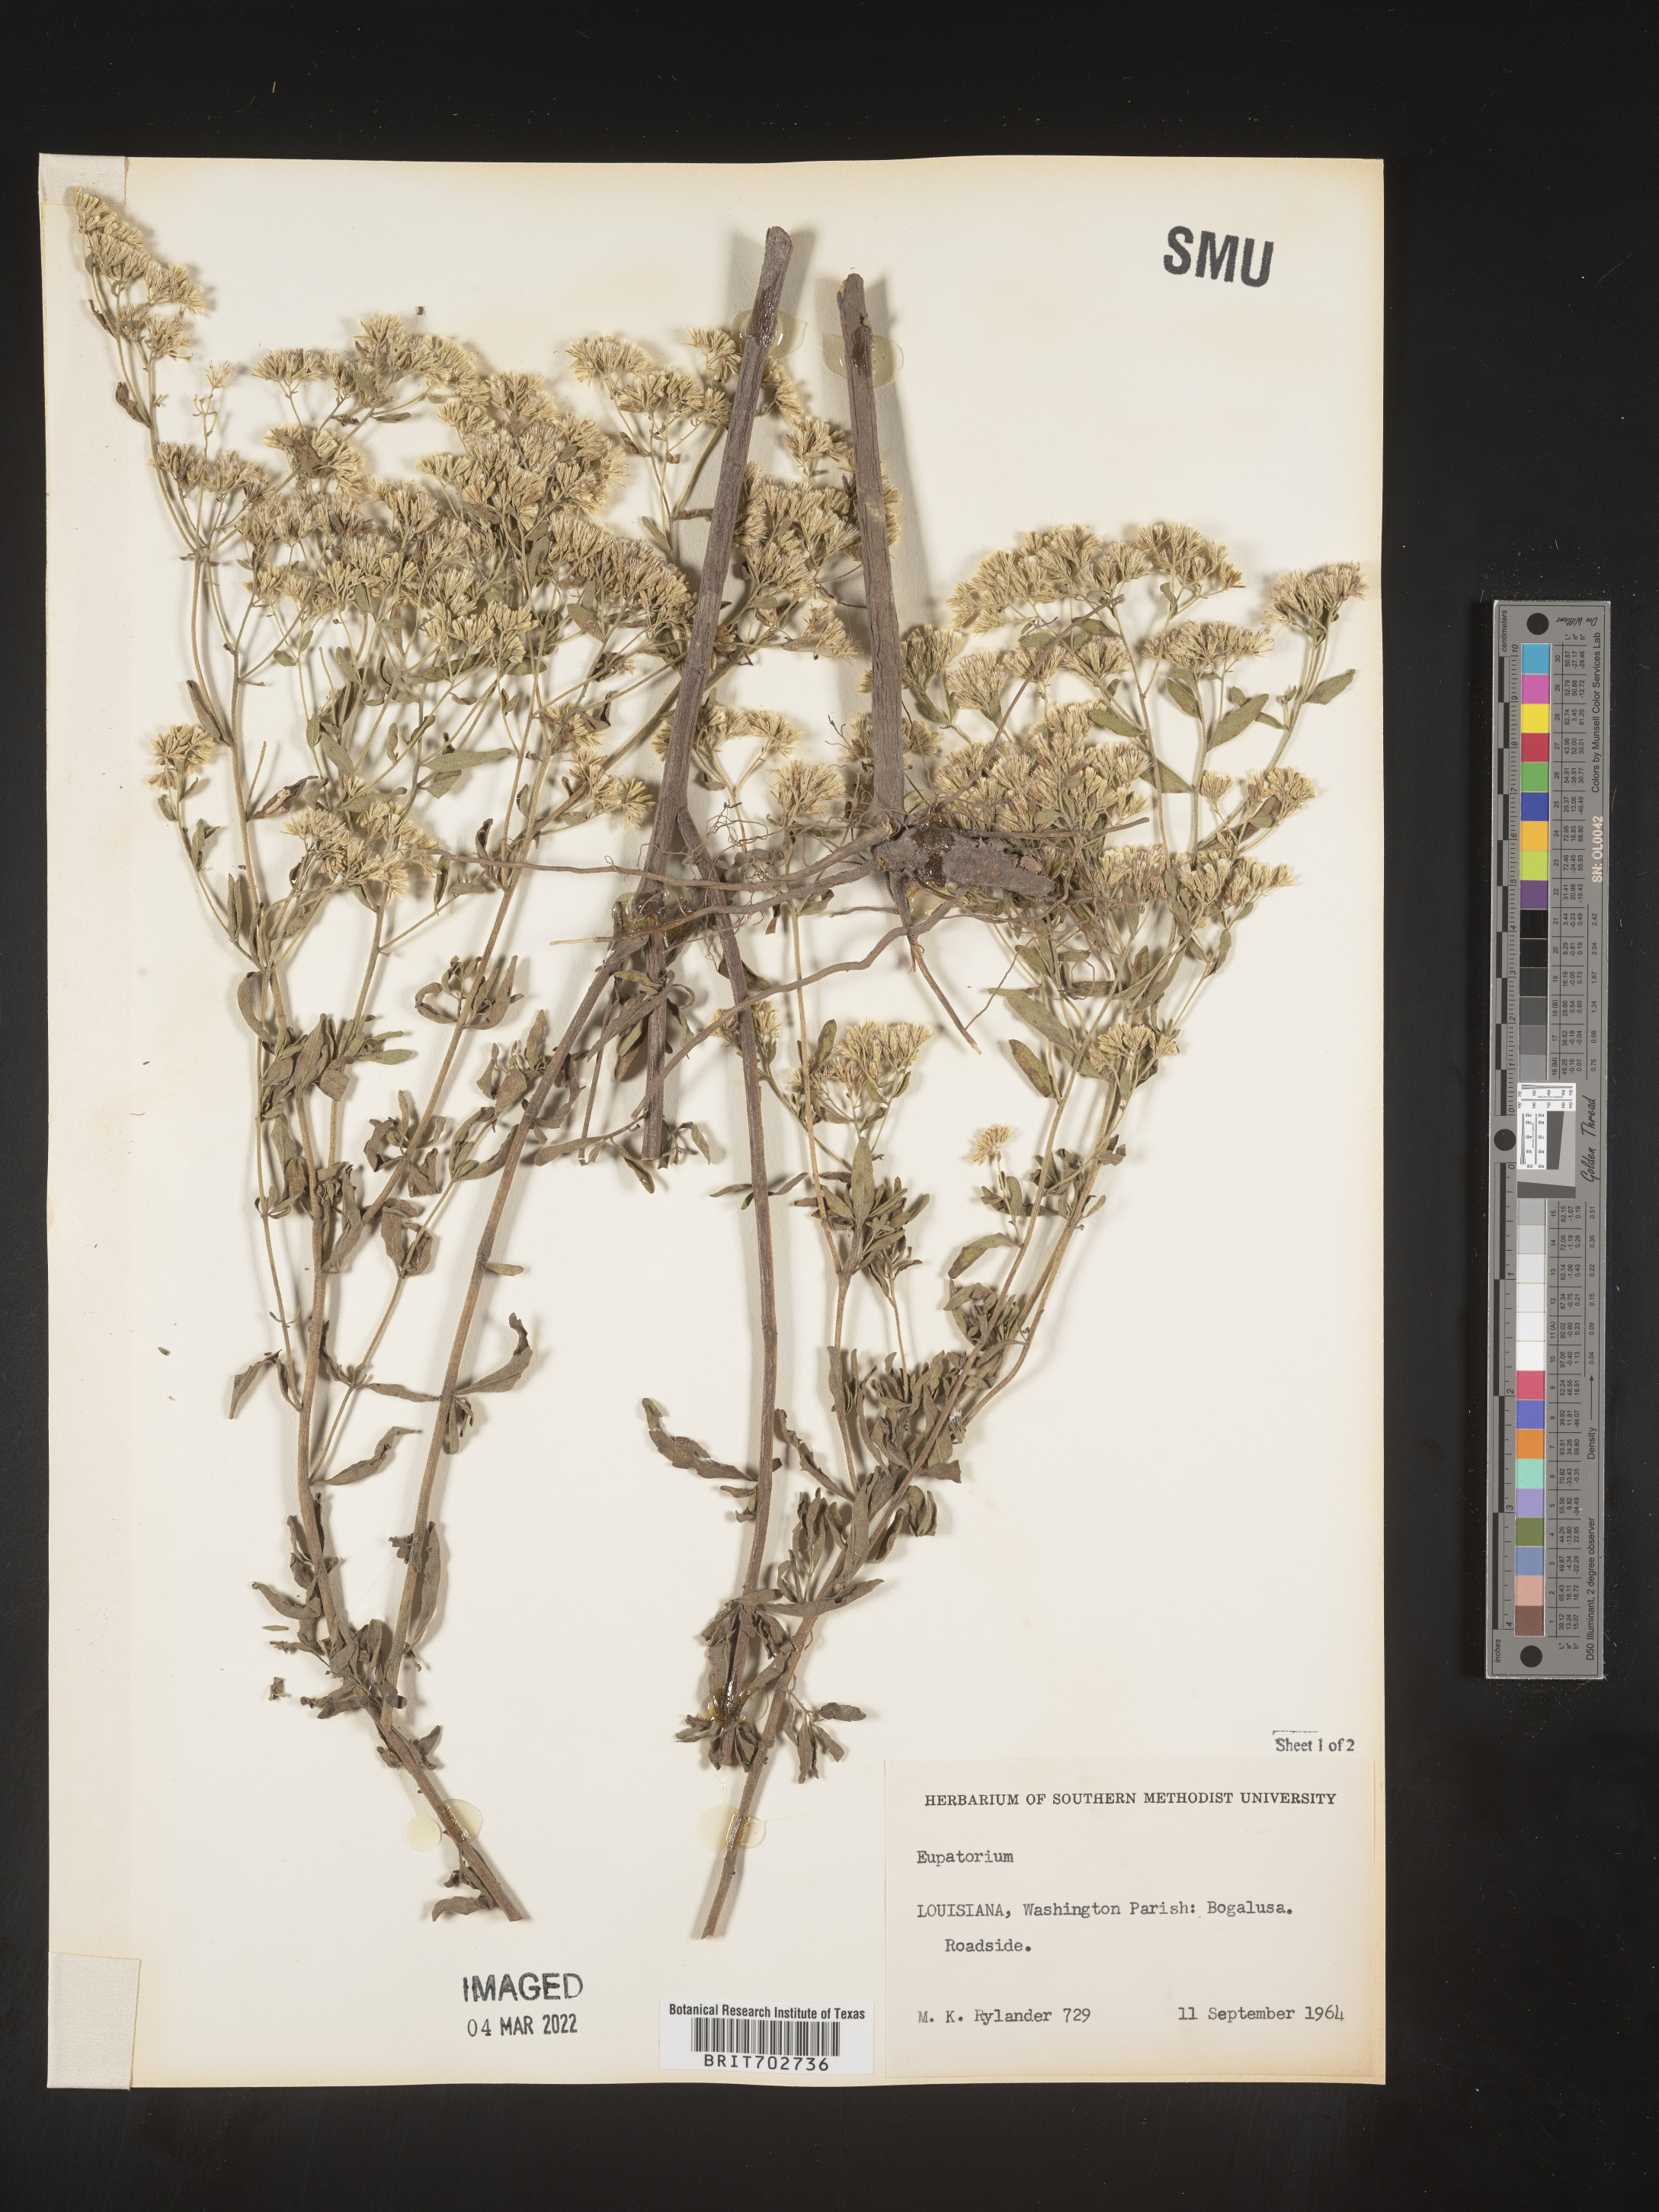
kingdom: Plantae
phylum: Tracheophyta
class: Magnoliopsida
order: Asterales
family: Asteraceae
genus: Eupatorium
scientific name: Eupatorium
